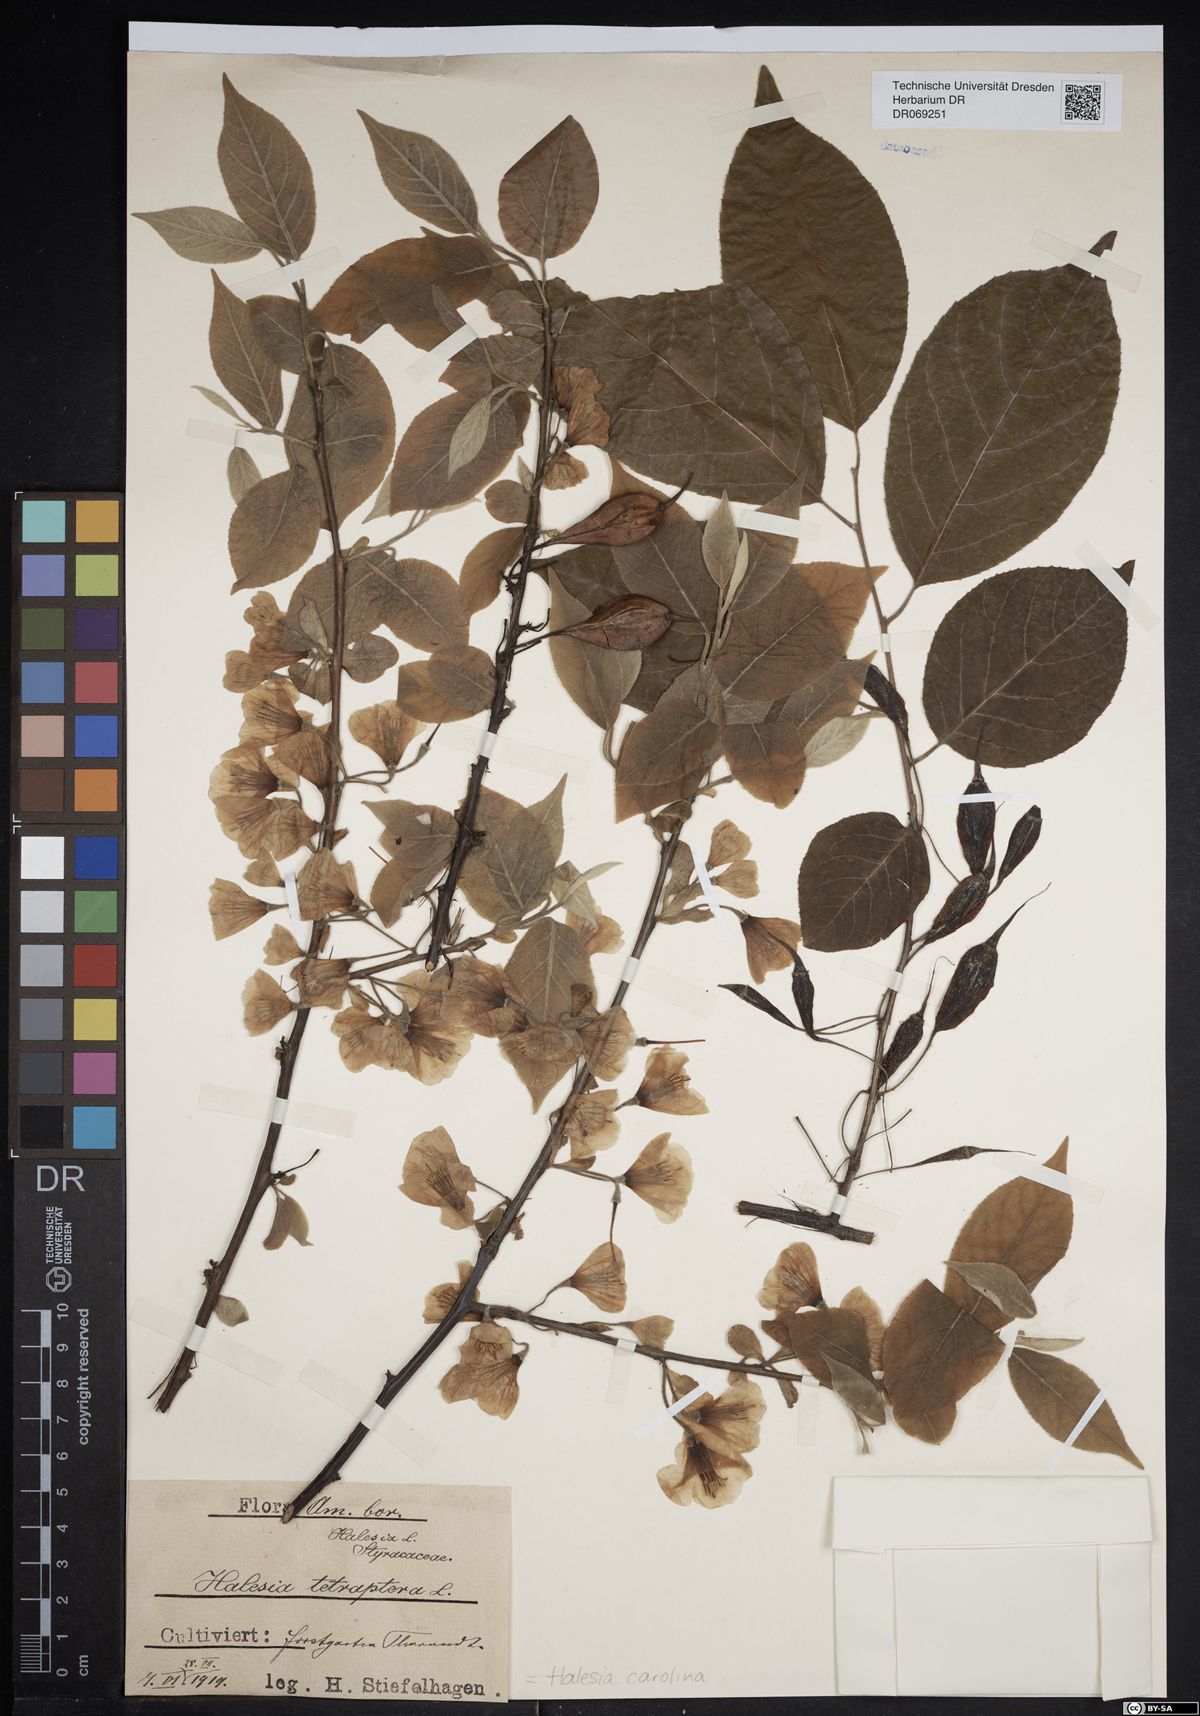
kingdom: Plantae
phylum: Tracheophyta
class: Magnoliopsida
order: Ericales
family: Styracaceae
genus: Halesia
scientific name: Halesia carolina
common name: Carolina silverbell
